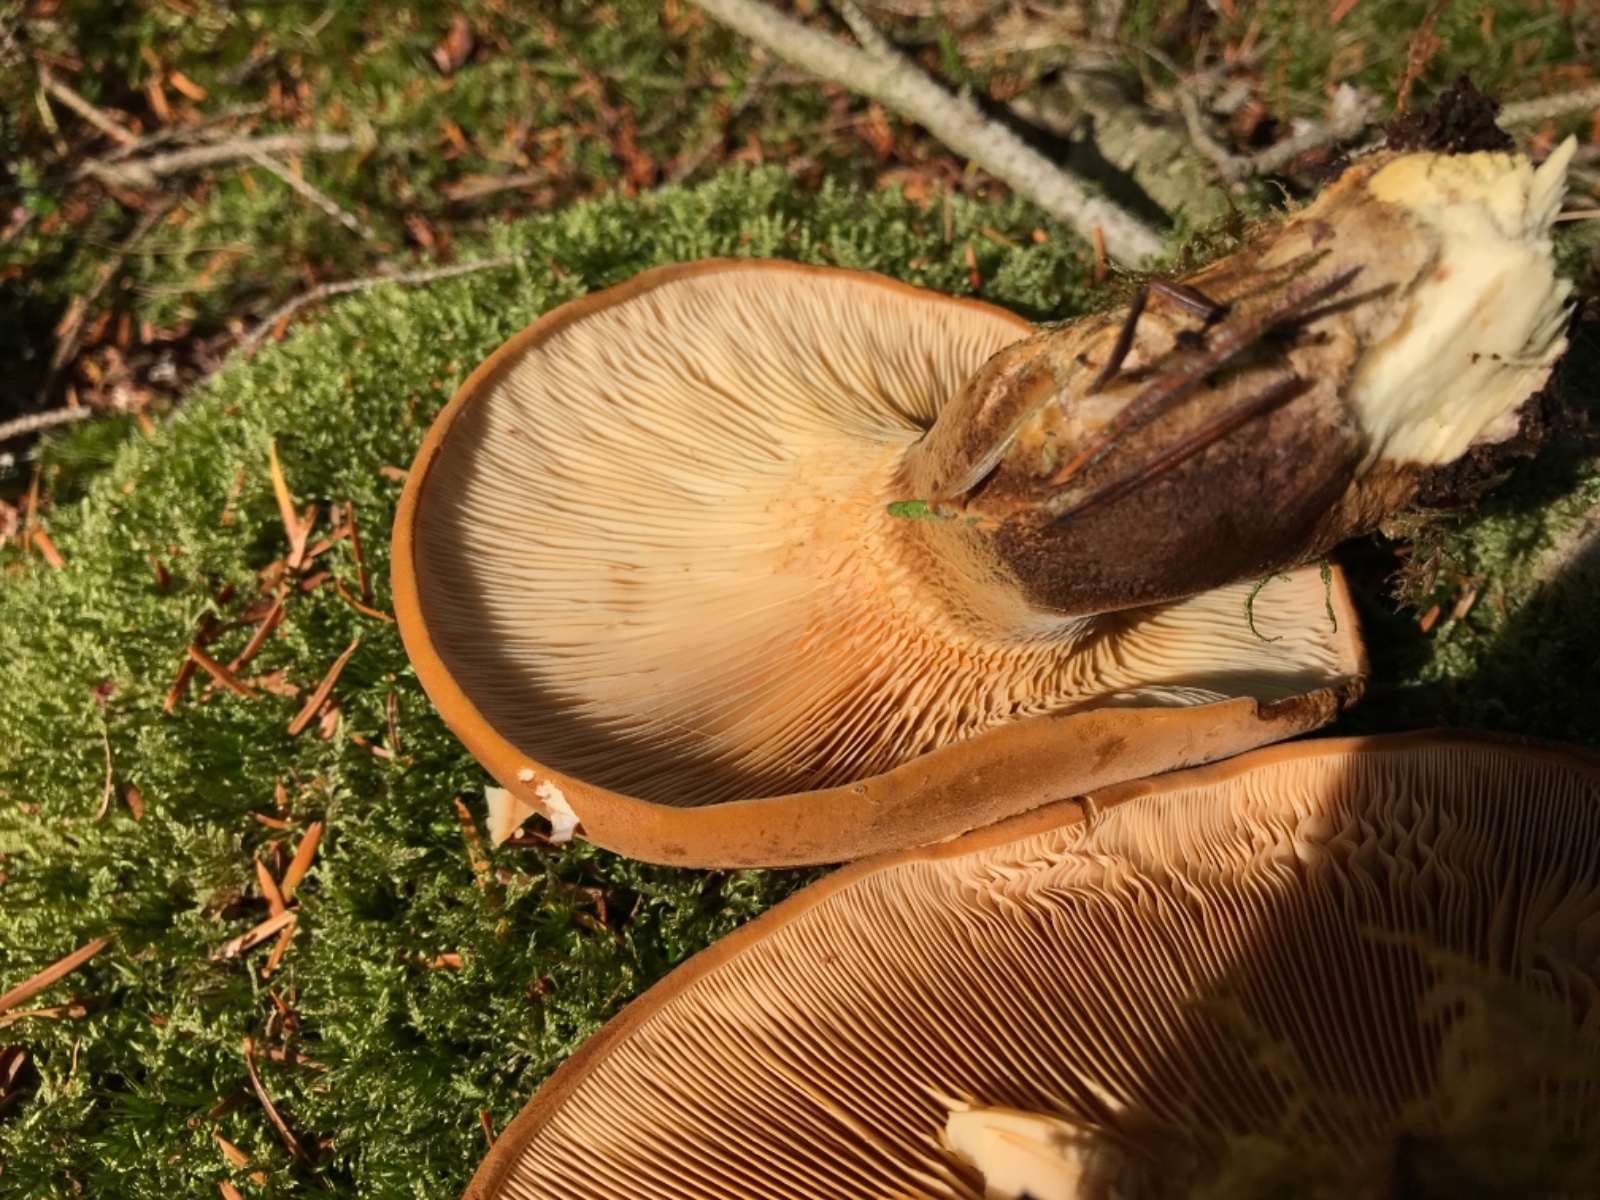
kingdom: Fungi
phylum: Basidiomycota
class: Agaricomycetes
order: Boletales
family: Tapinellaceae
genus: Tapinella
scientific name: Tapinella atrotomentosa
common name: sortfiltet viftesvamp
